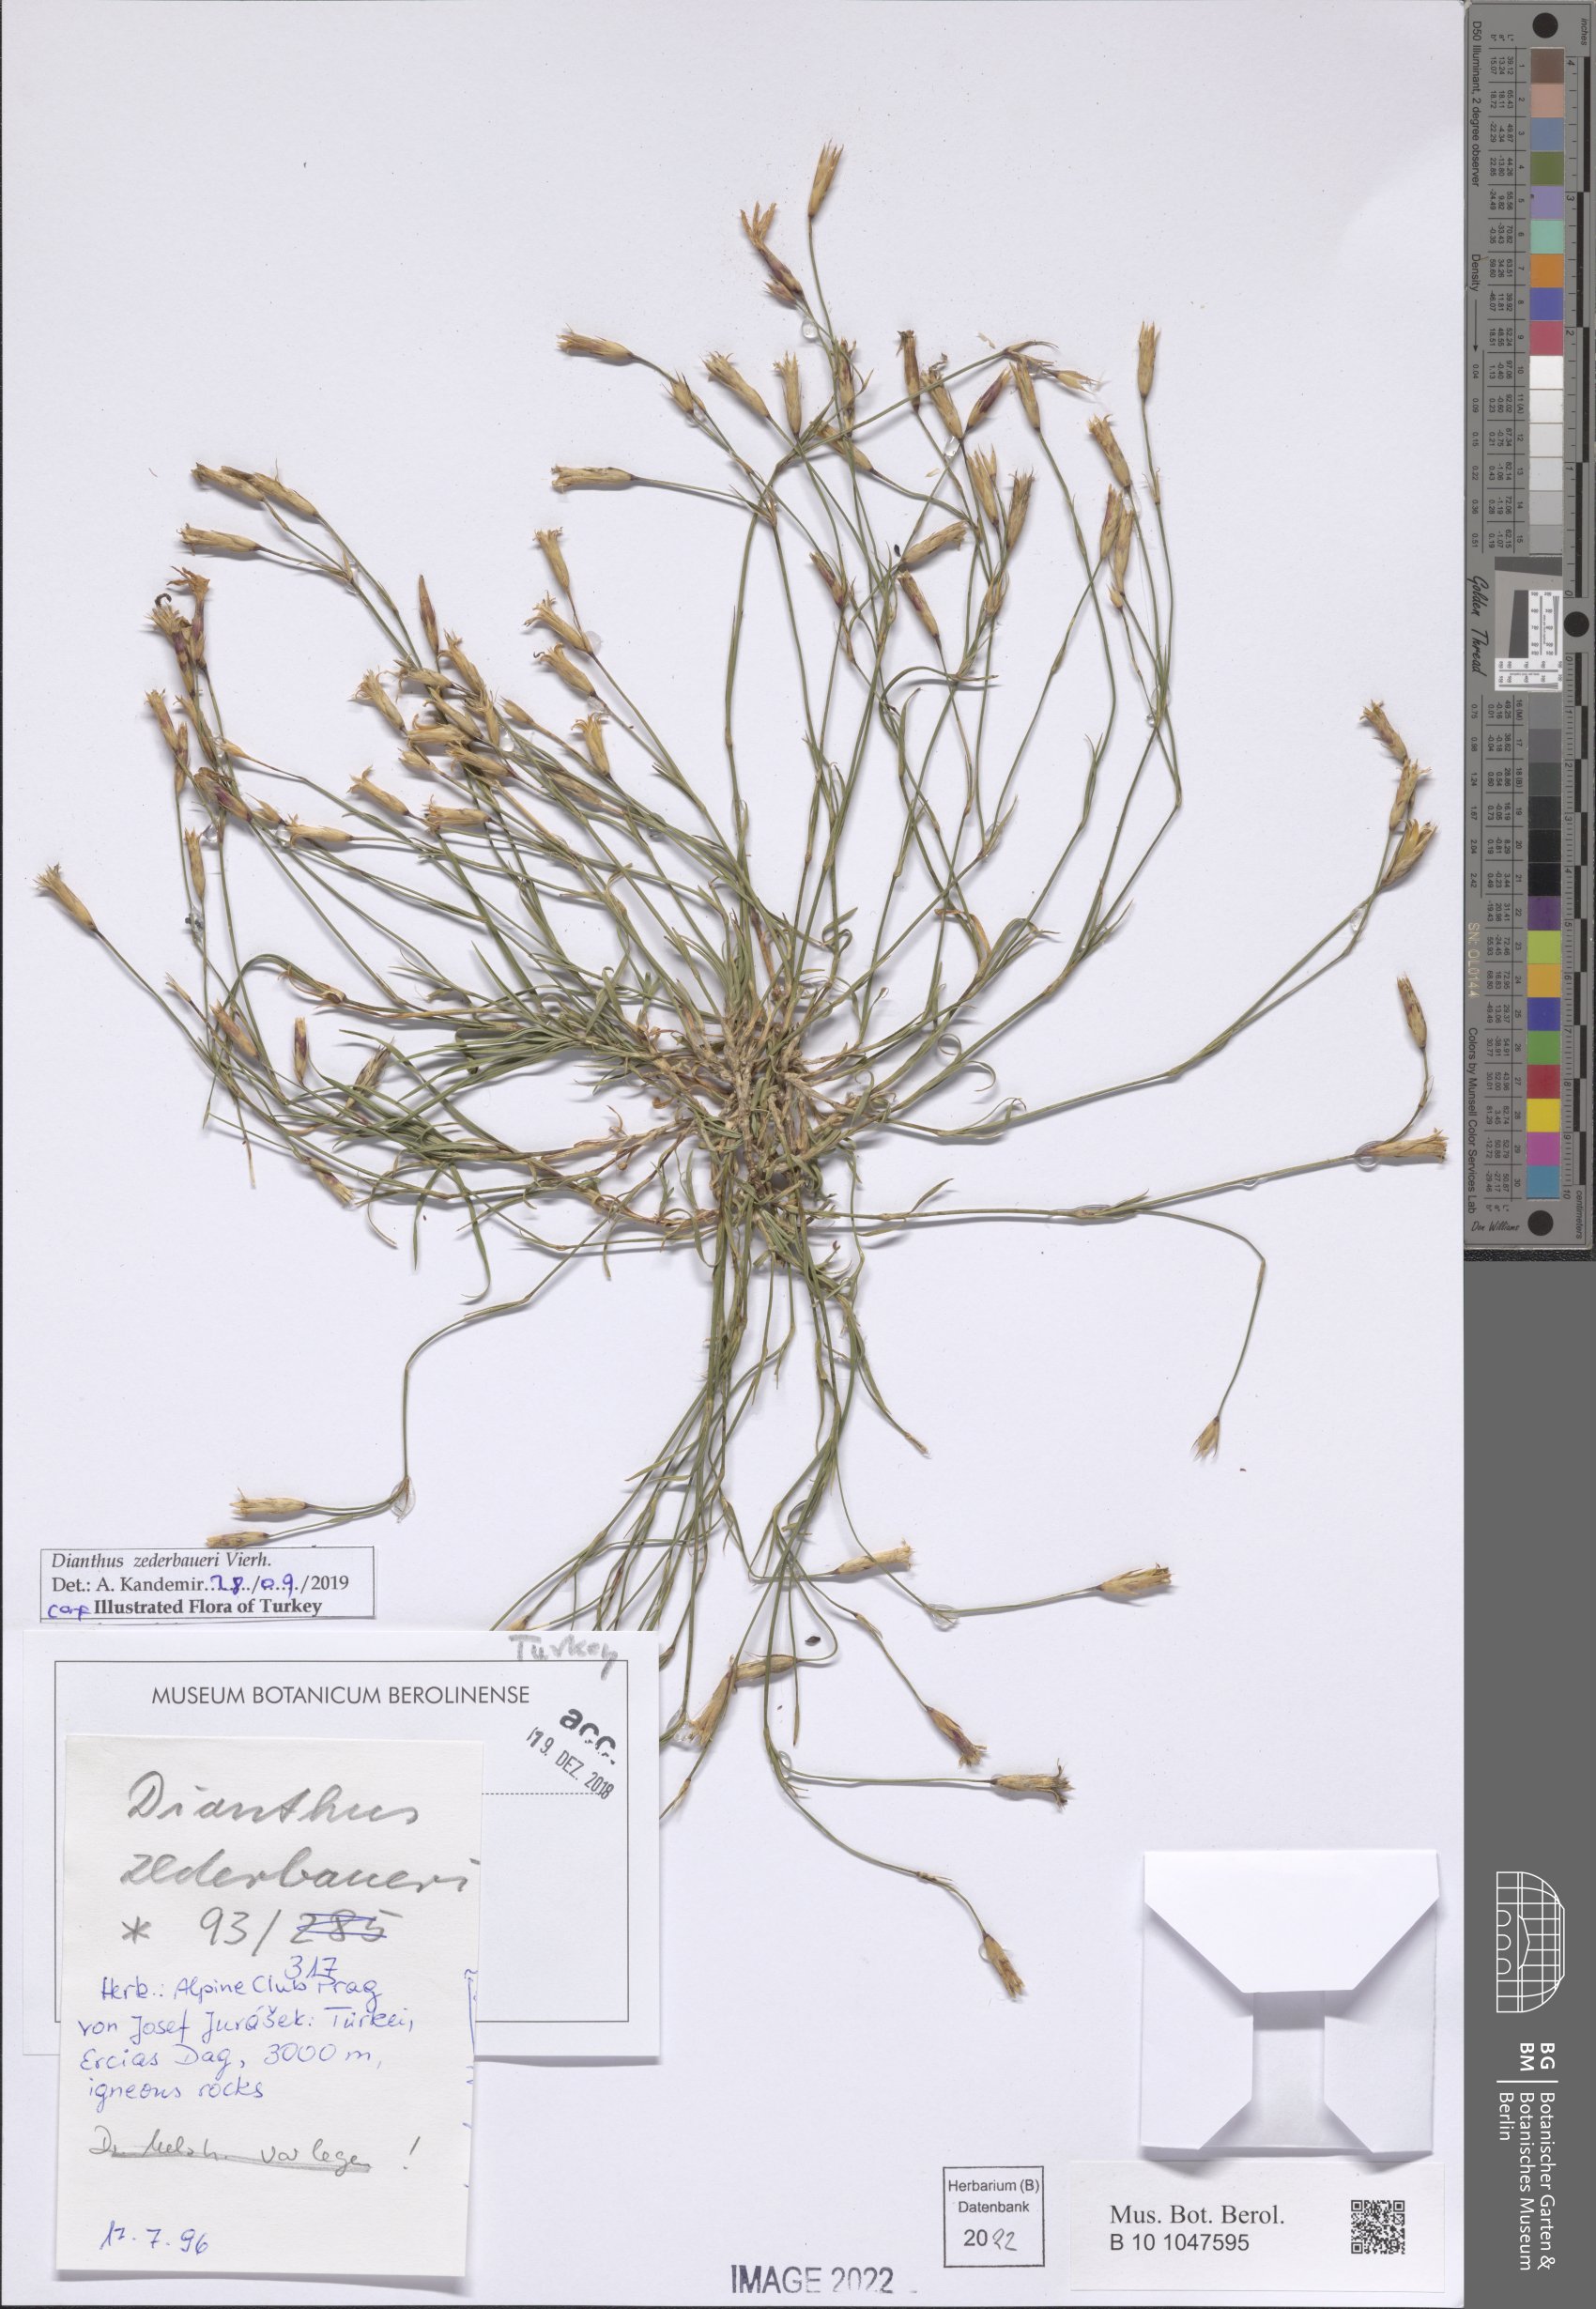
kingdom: Plantae
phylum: Tracheophyta
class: Magnoliopsida
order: Caryophyllales
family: Caryophyllaceae
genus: Dianthus
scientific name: Dianthus zederbaueri
